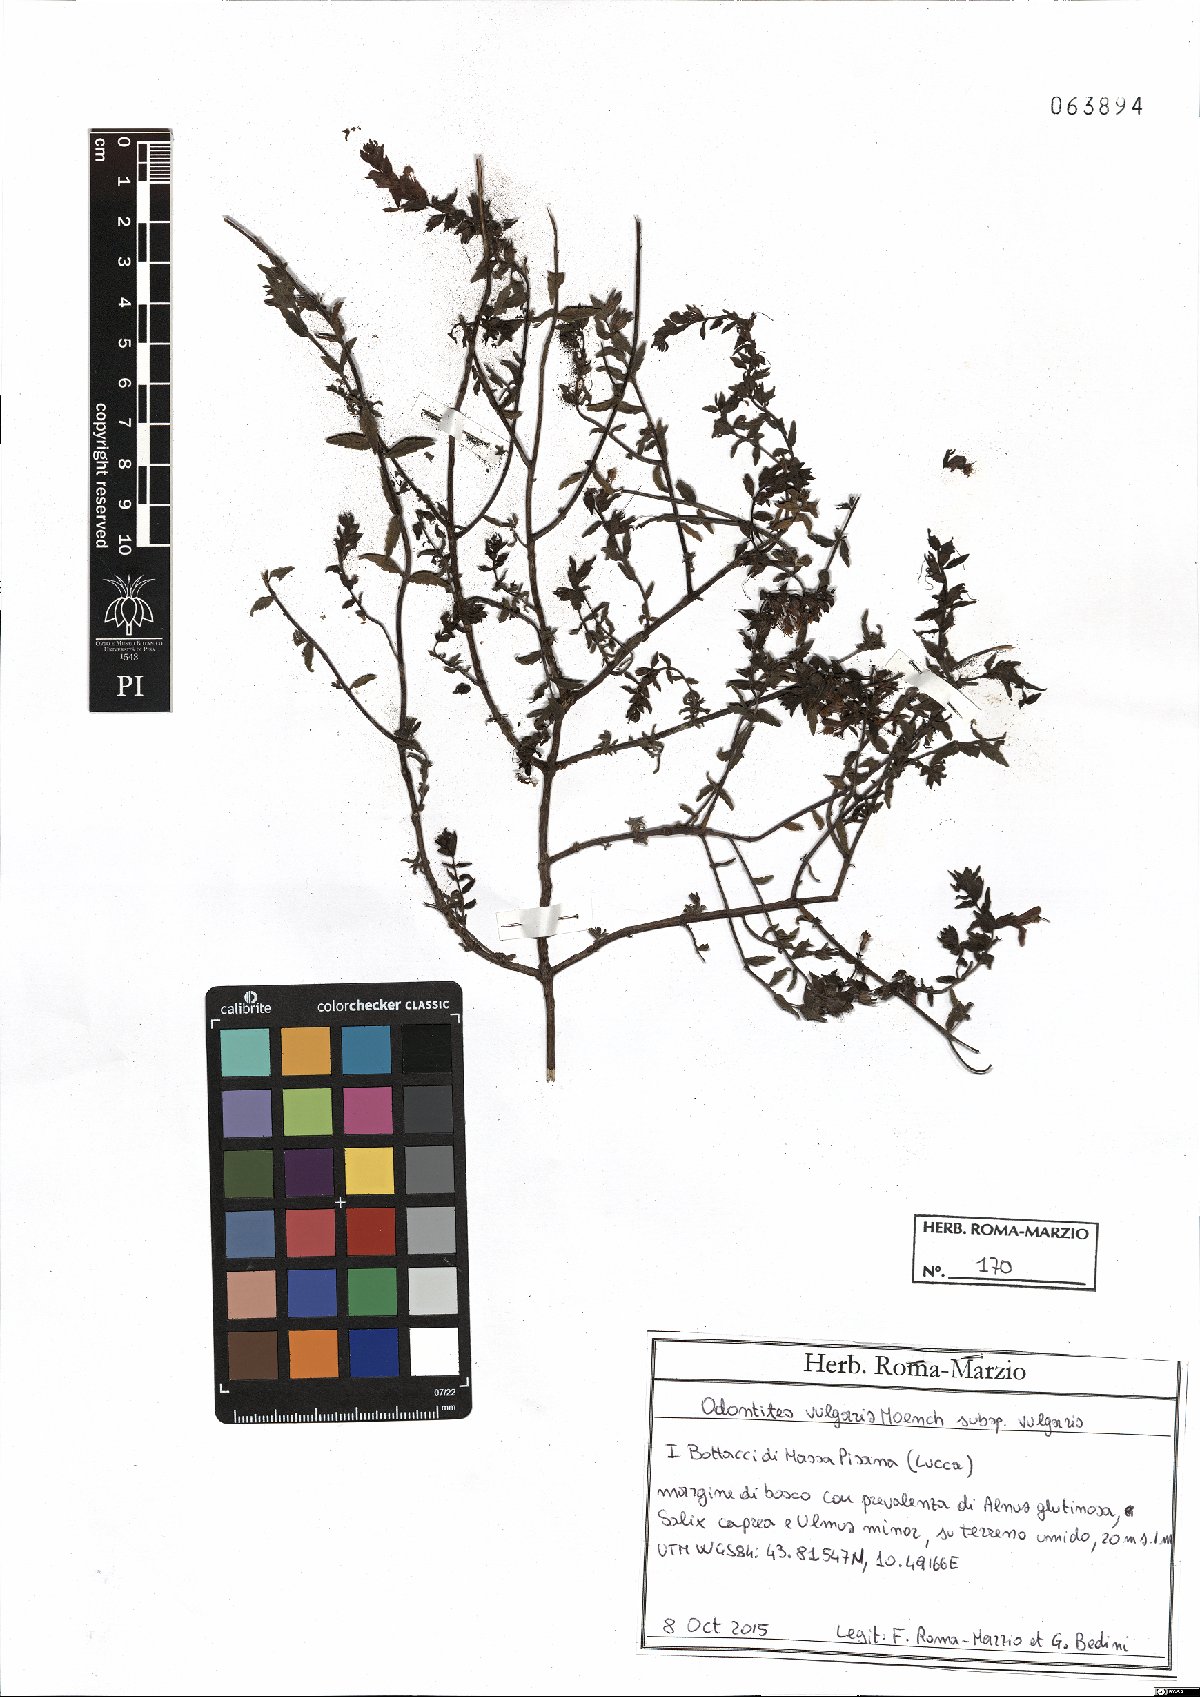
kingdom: Plantae
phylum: Tracheophyta
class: Magnoliopsida
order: Lamiales
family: Orobanchaceae
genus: Odontites
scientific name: Odontites vulgaris
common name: Broomrape
